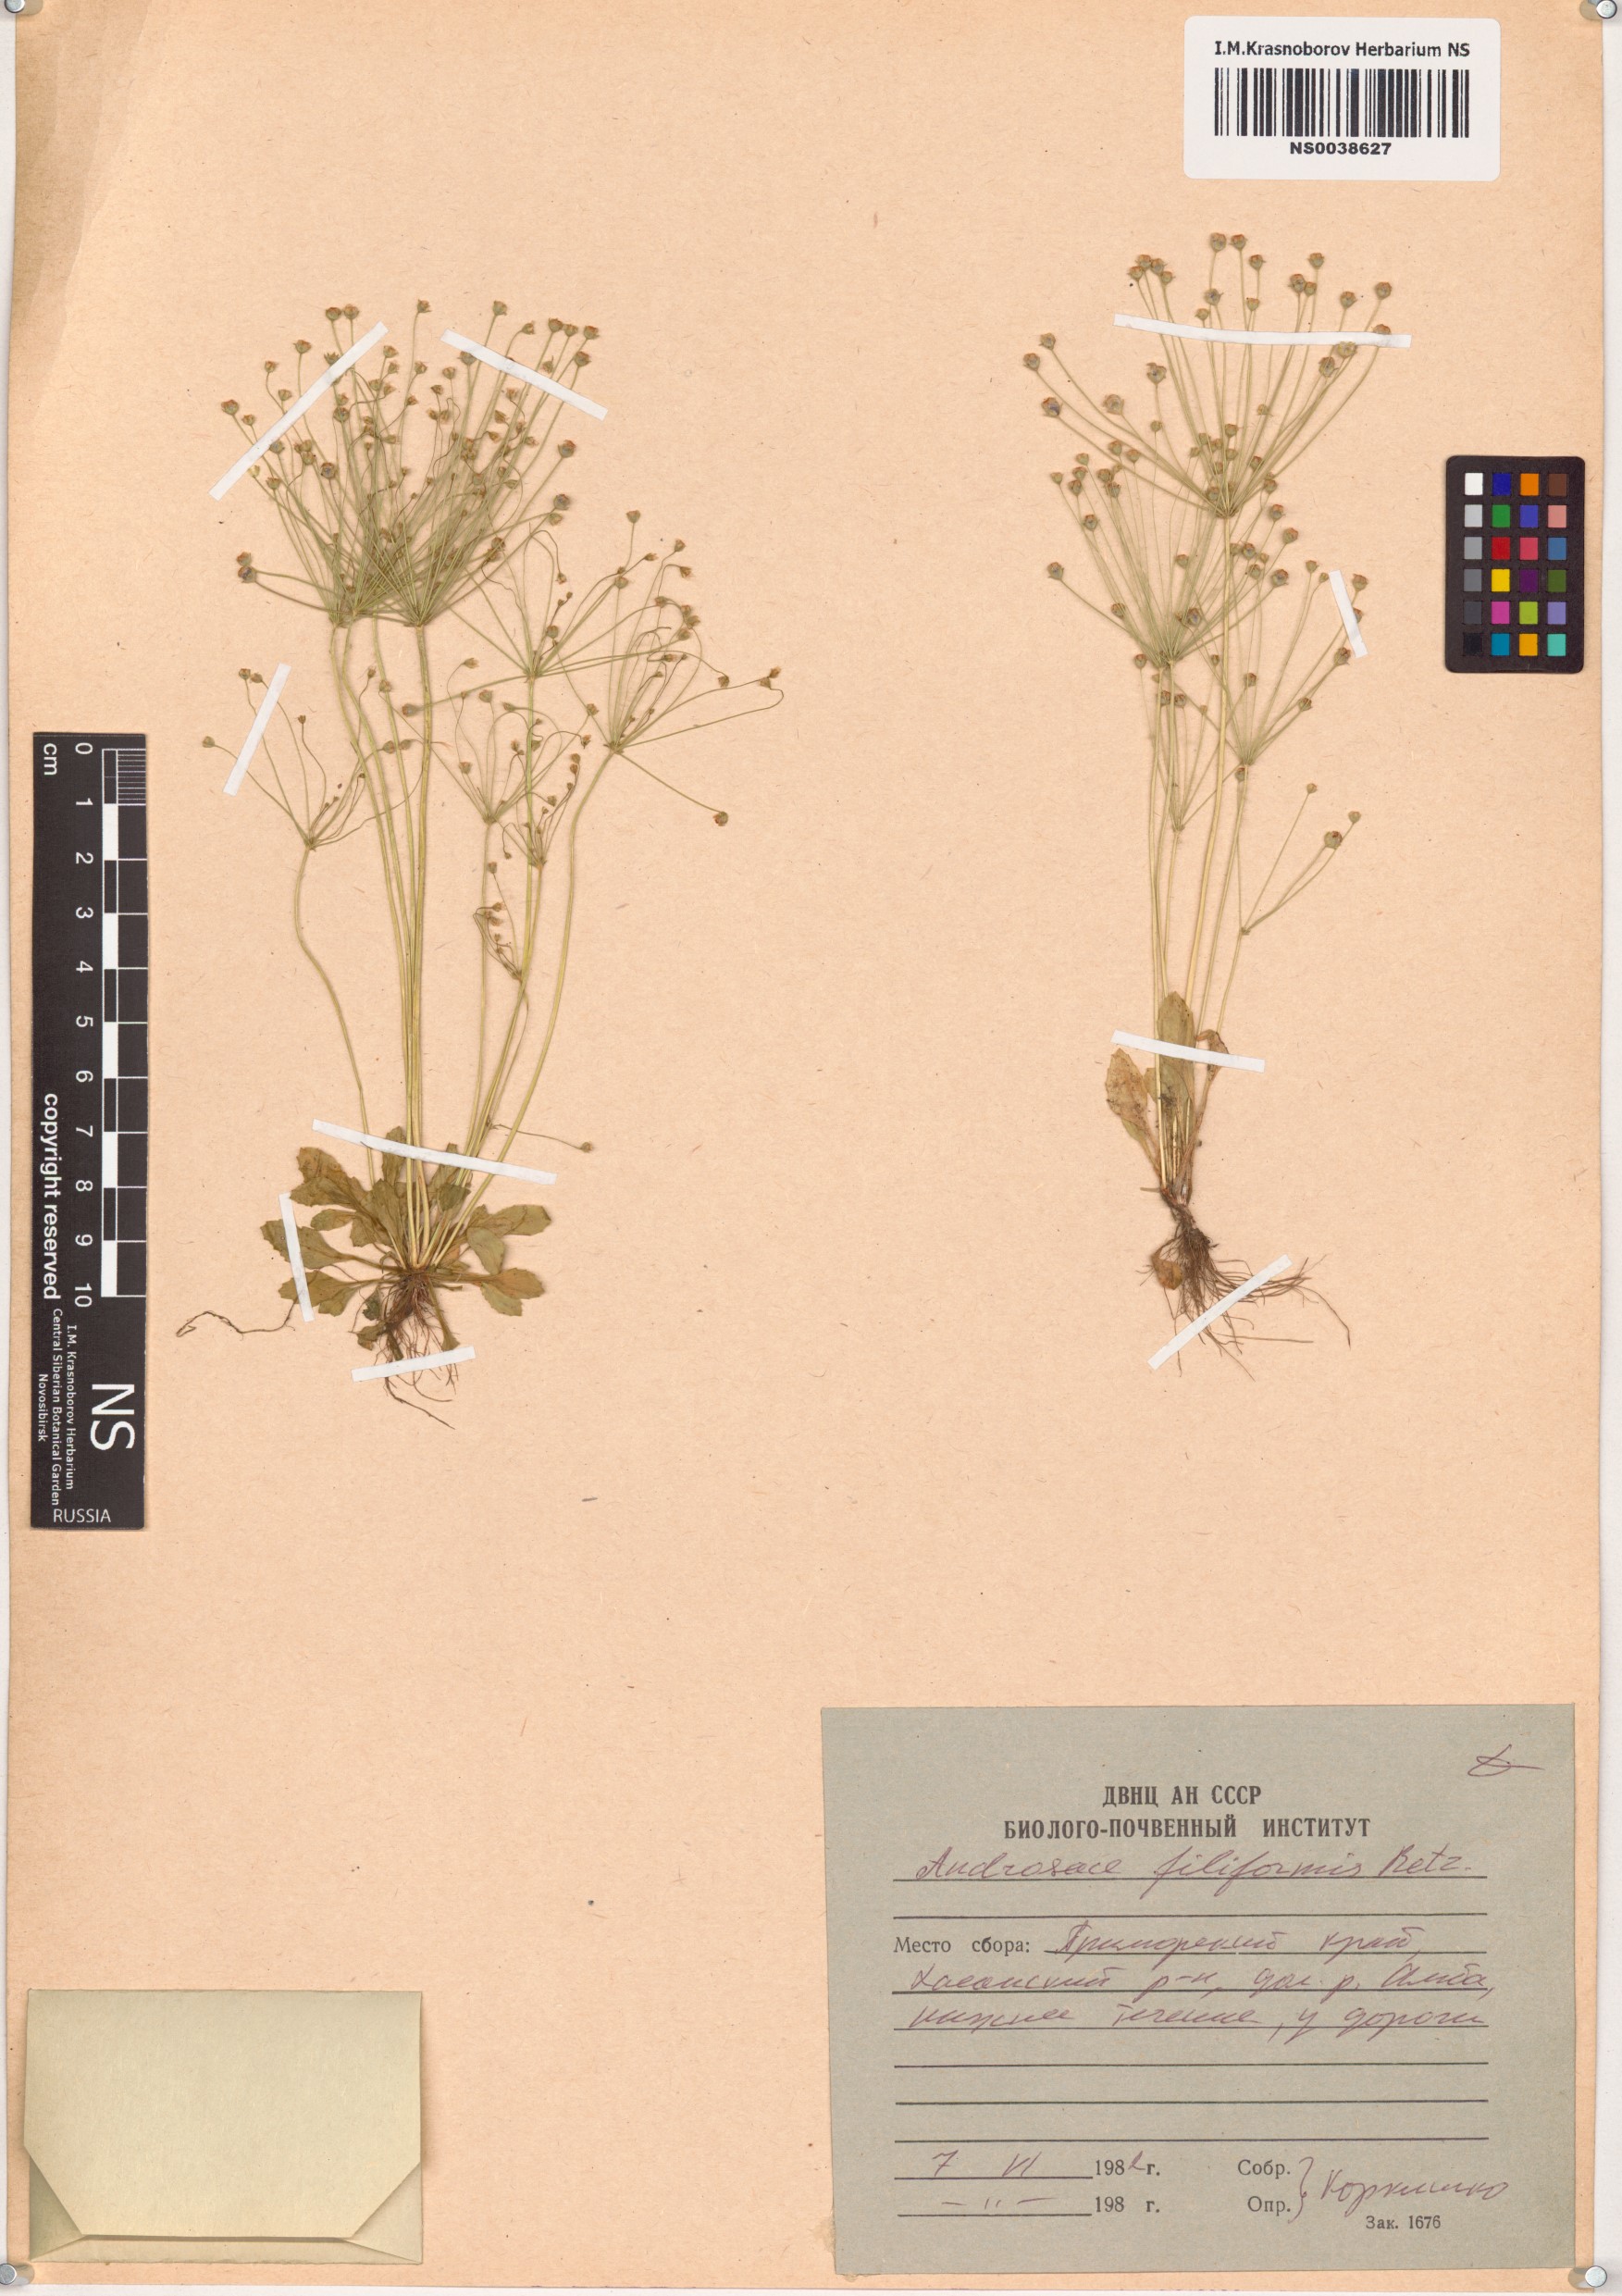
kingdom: Plantae
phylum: Tracheophyta
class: Magnoliopsida
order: Ericales
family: Primulaceae
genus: Androsace
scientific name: Androsace filiformis
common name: Filiform rock jasmine
